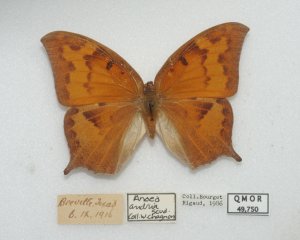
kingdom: Animalia
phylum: Arthropoda
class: Insecta
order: Lepidoptera
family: Nymphalidae
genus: Anaea
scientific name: Anaea andria
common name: Goatweed Leafwing
